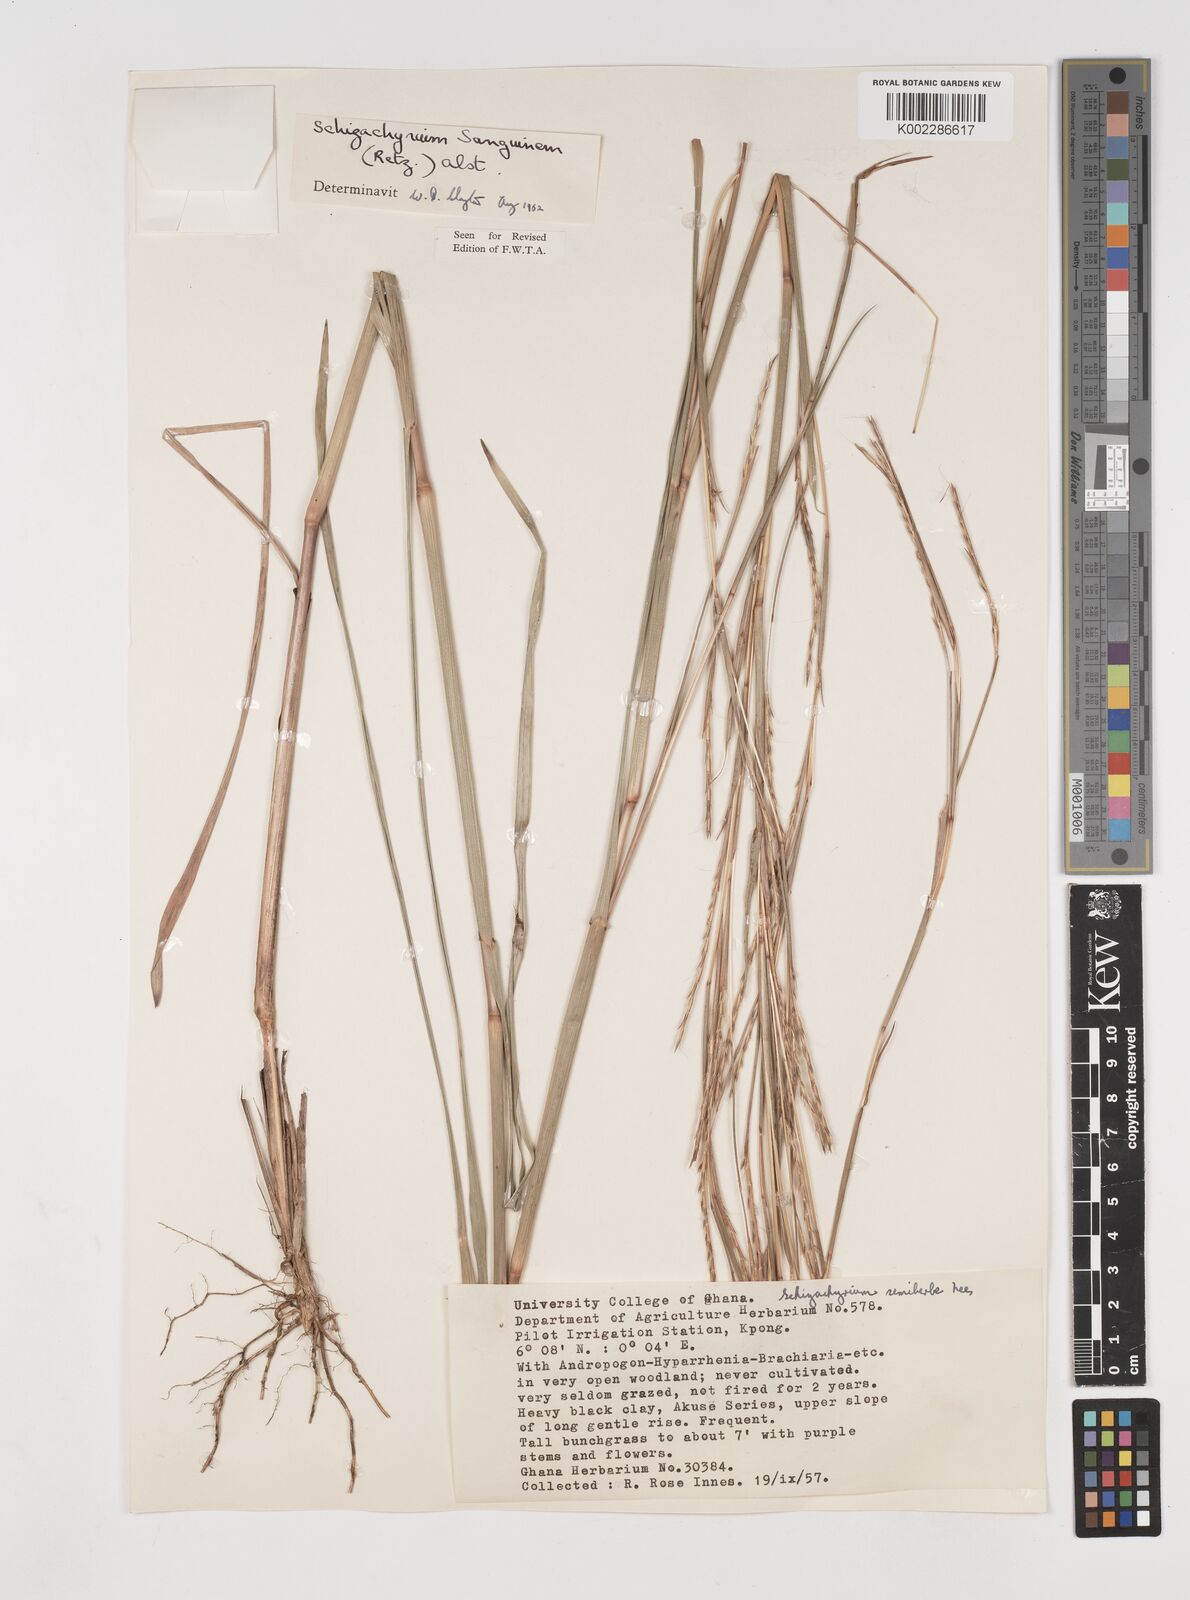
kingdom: Plantae
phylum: Tracheophyta
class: Liliopsida
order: Poales
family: Poaceae
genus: Schizachyrium
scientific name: Schizachyrium sanguineum
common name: Crimson bluestem
